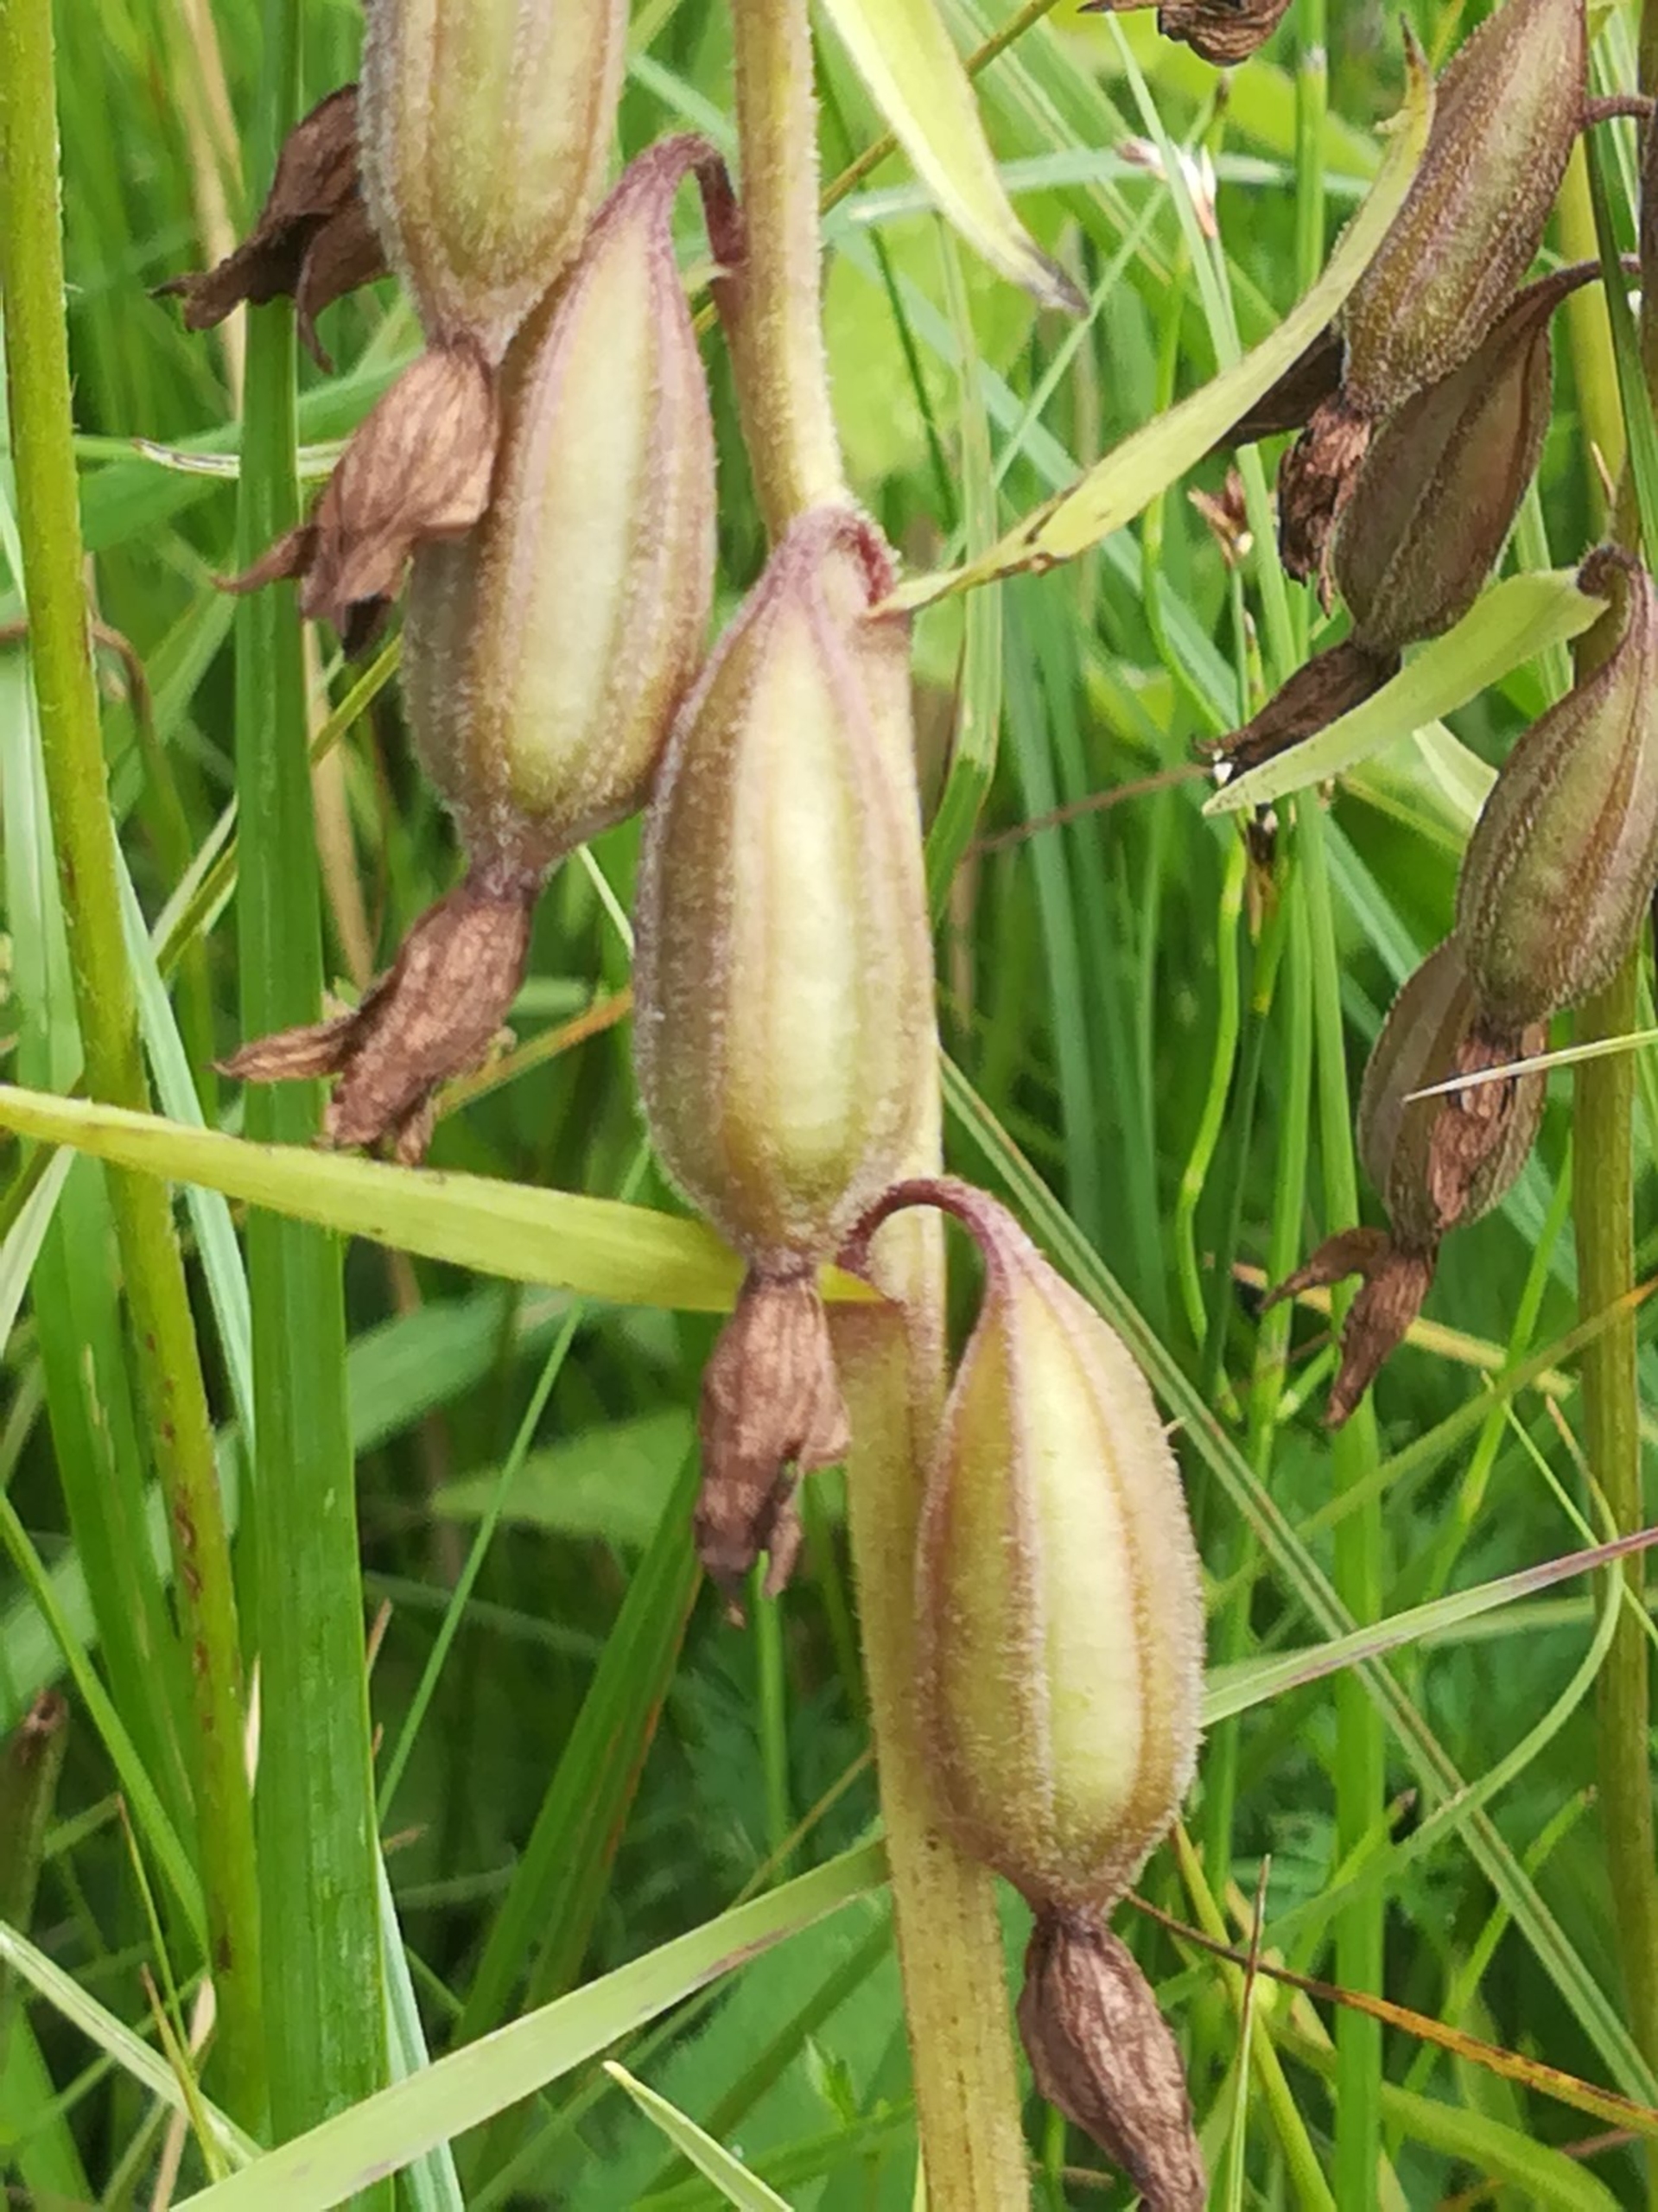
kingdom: Plantae
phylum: Tracheophyta
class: Liliopsida
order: Asparagales
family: Orchidaceae
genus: Epipactis
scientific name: Epipactis palustris
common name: Sump-hullæbe
